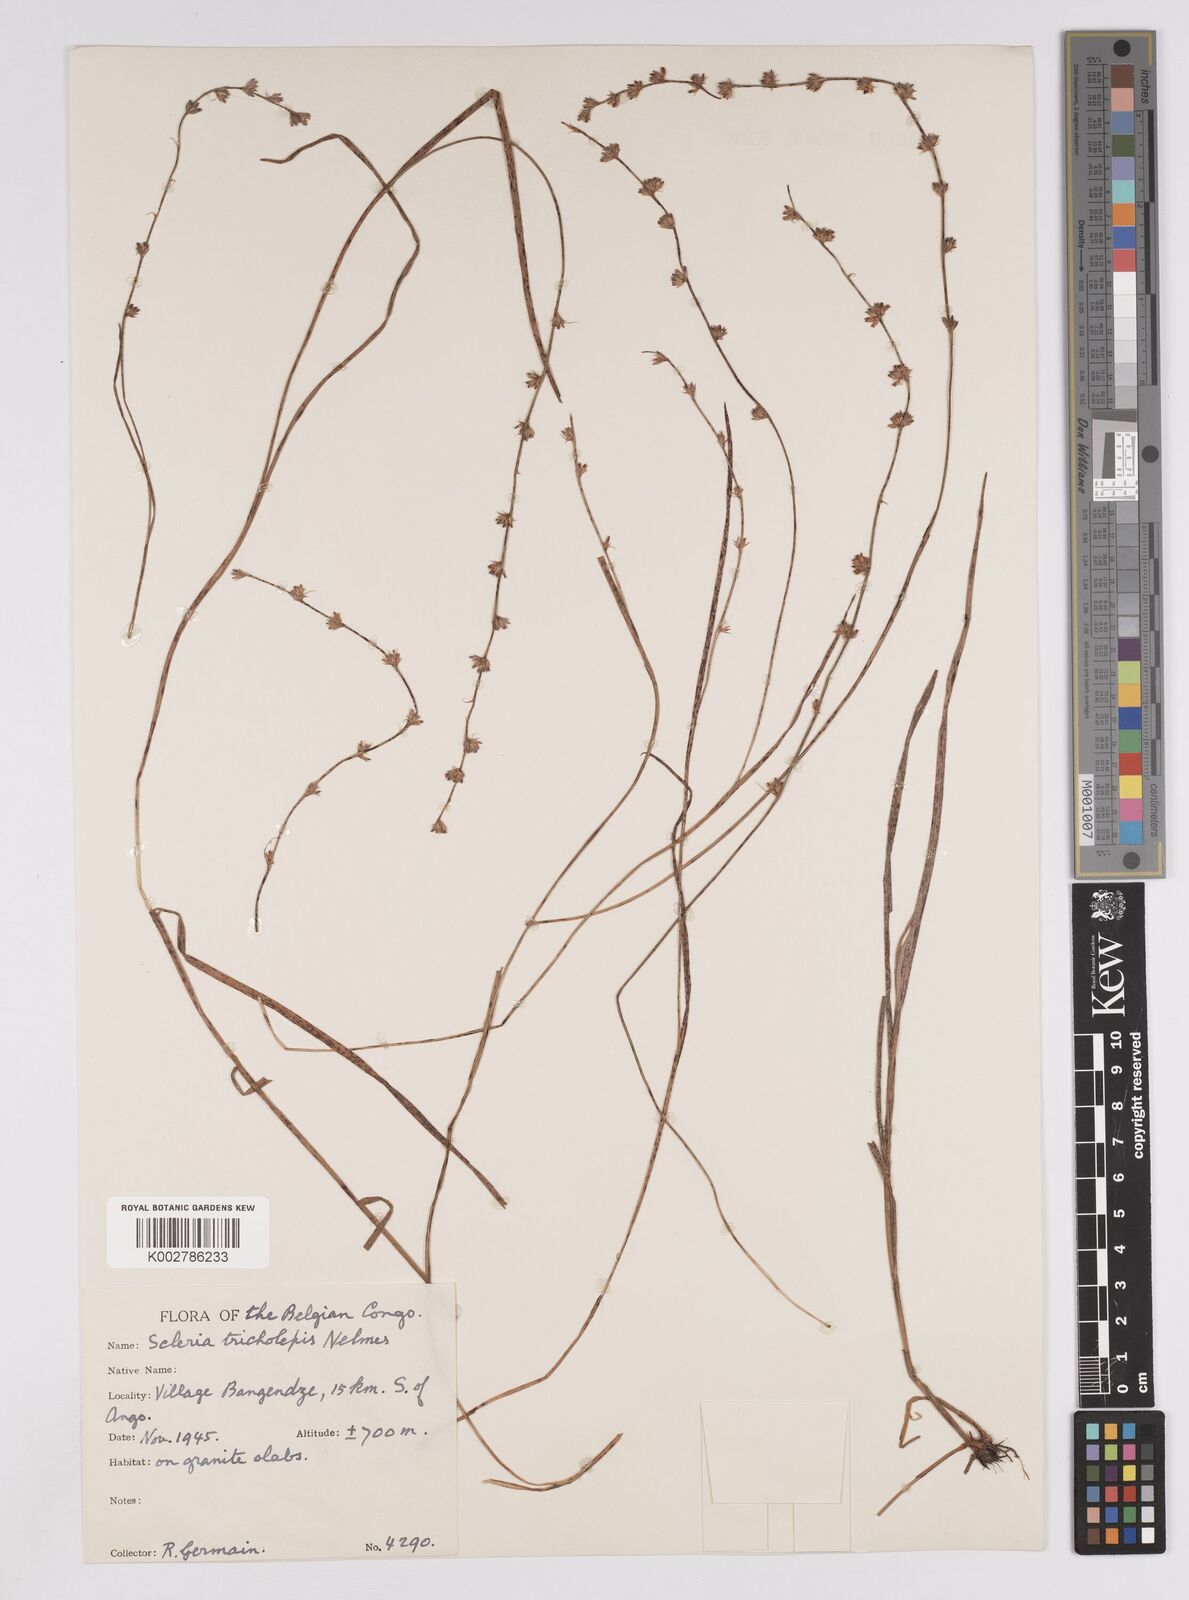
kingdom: Plantae
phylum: Tracheophyta
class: Liliopsida
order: Poales
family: Cyperaceae
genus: Scleria
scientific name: Scleria hirtella
